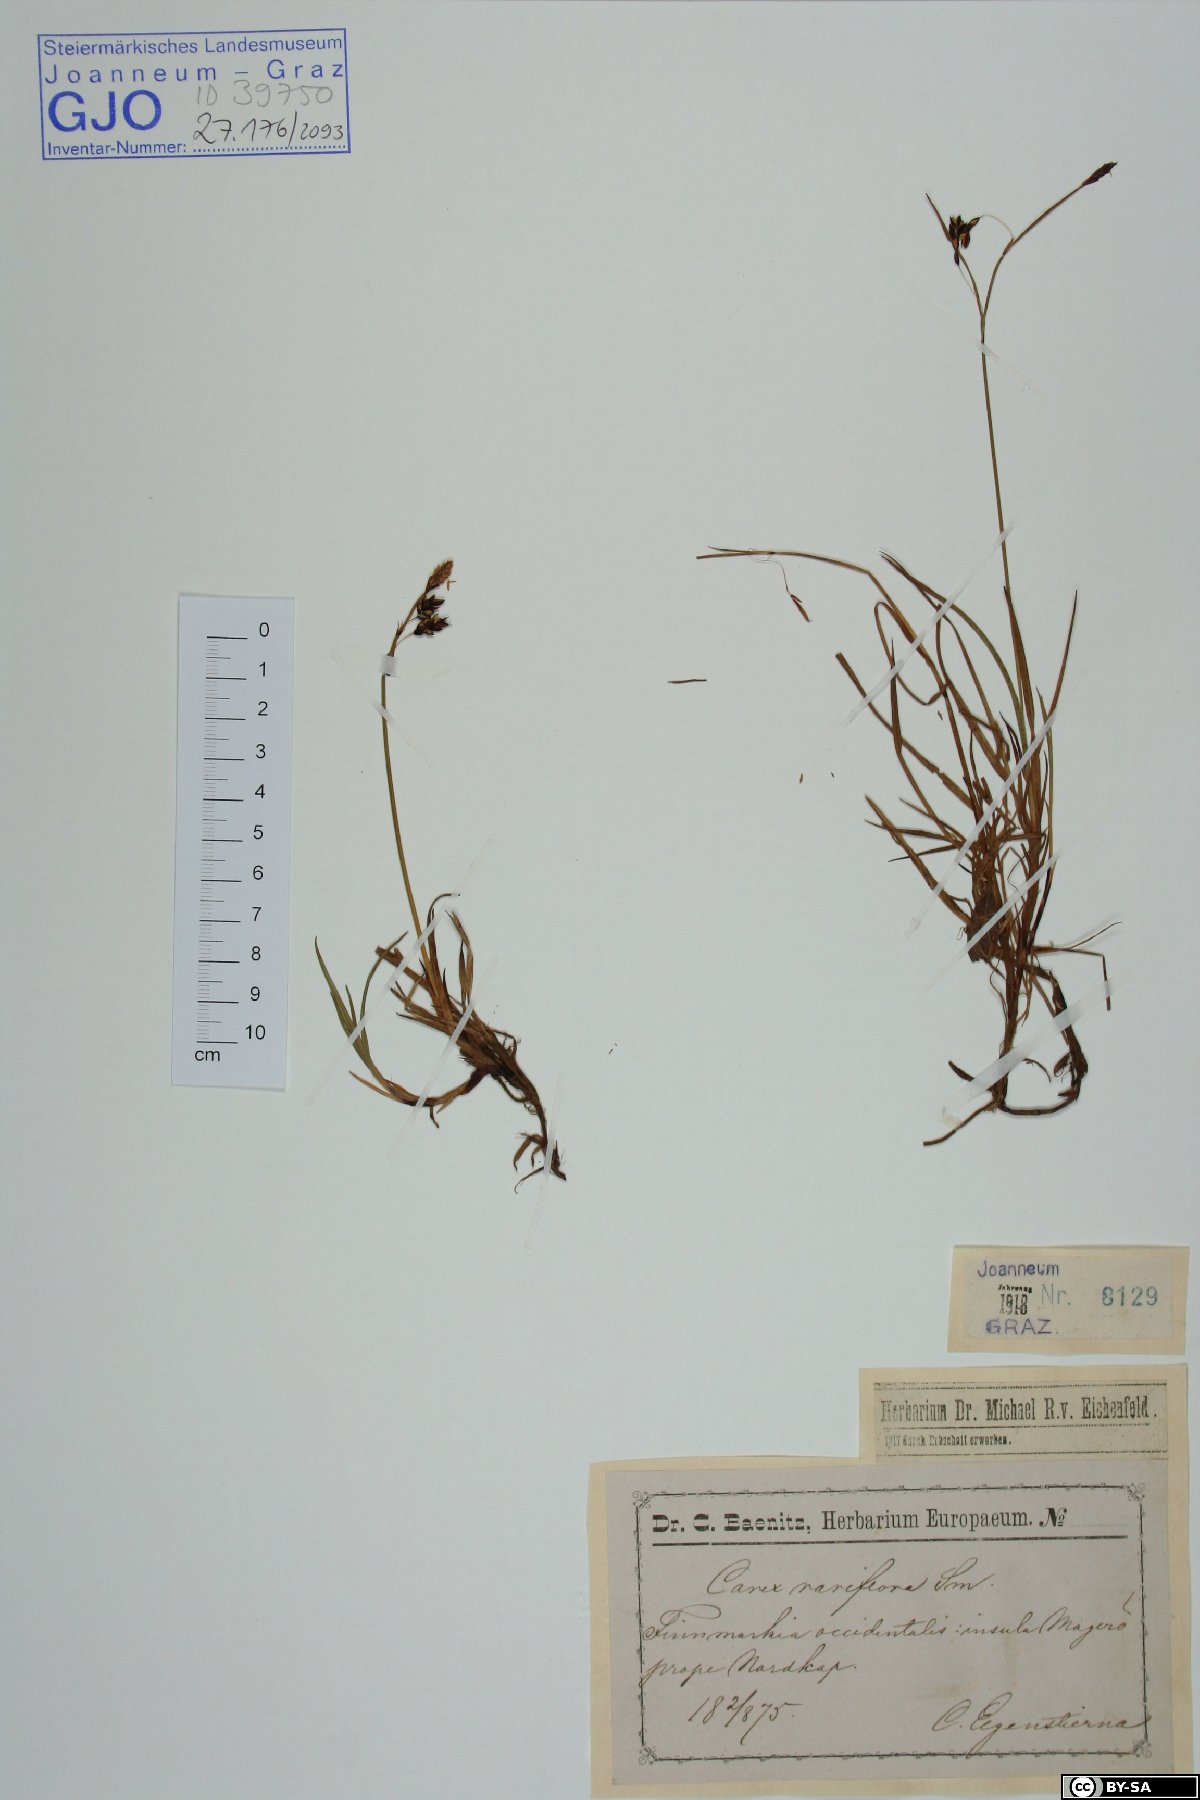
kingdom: Plantae
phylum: Tracheophyta
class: Liliopsida
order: Poales
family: Cyperaceae
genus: Carex
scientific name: Carex rariflora
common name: Loose-flowered alpine sedge
